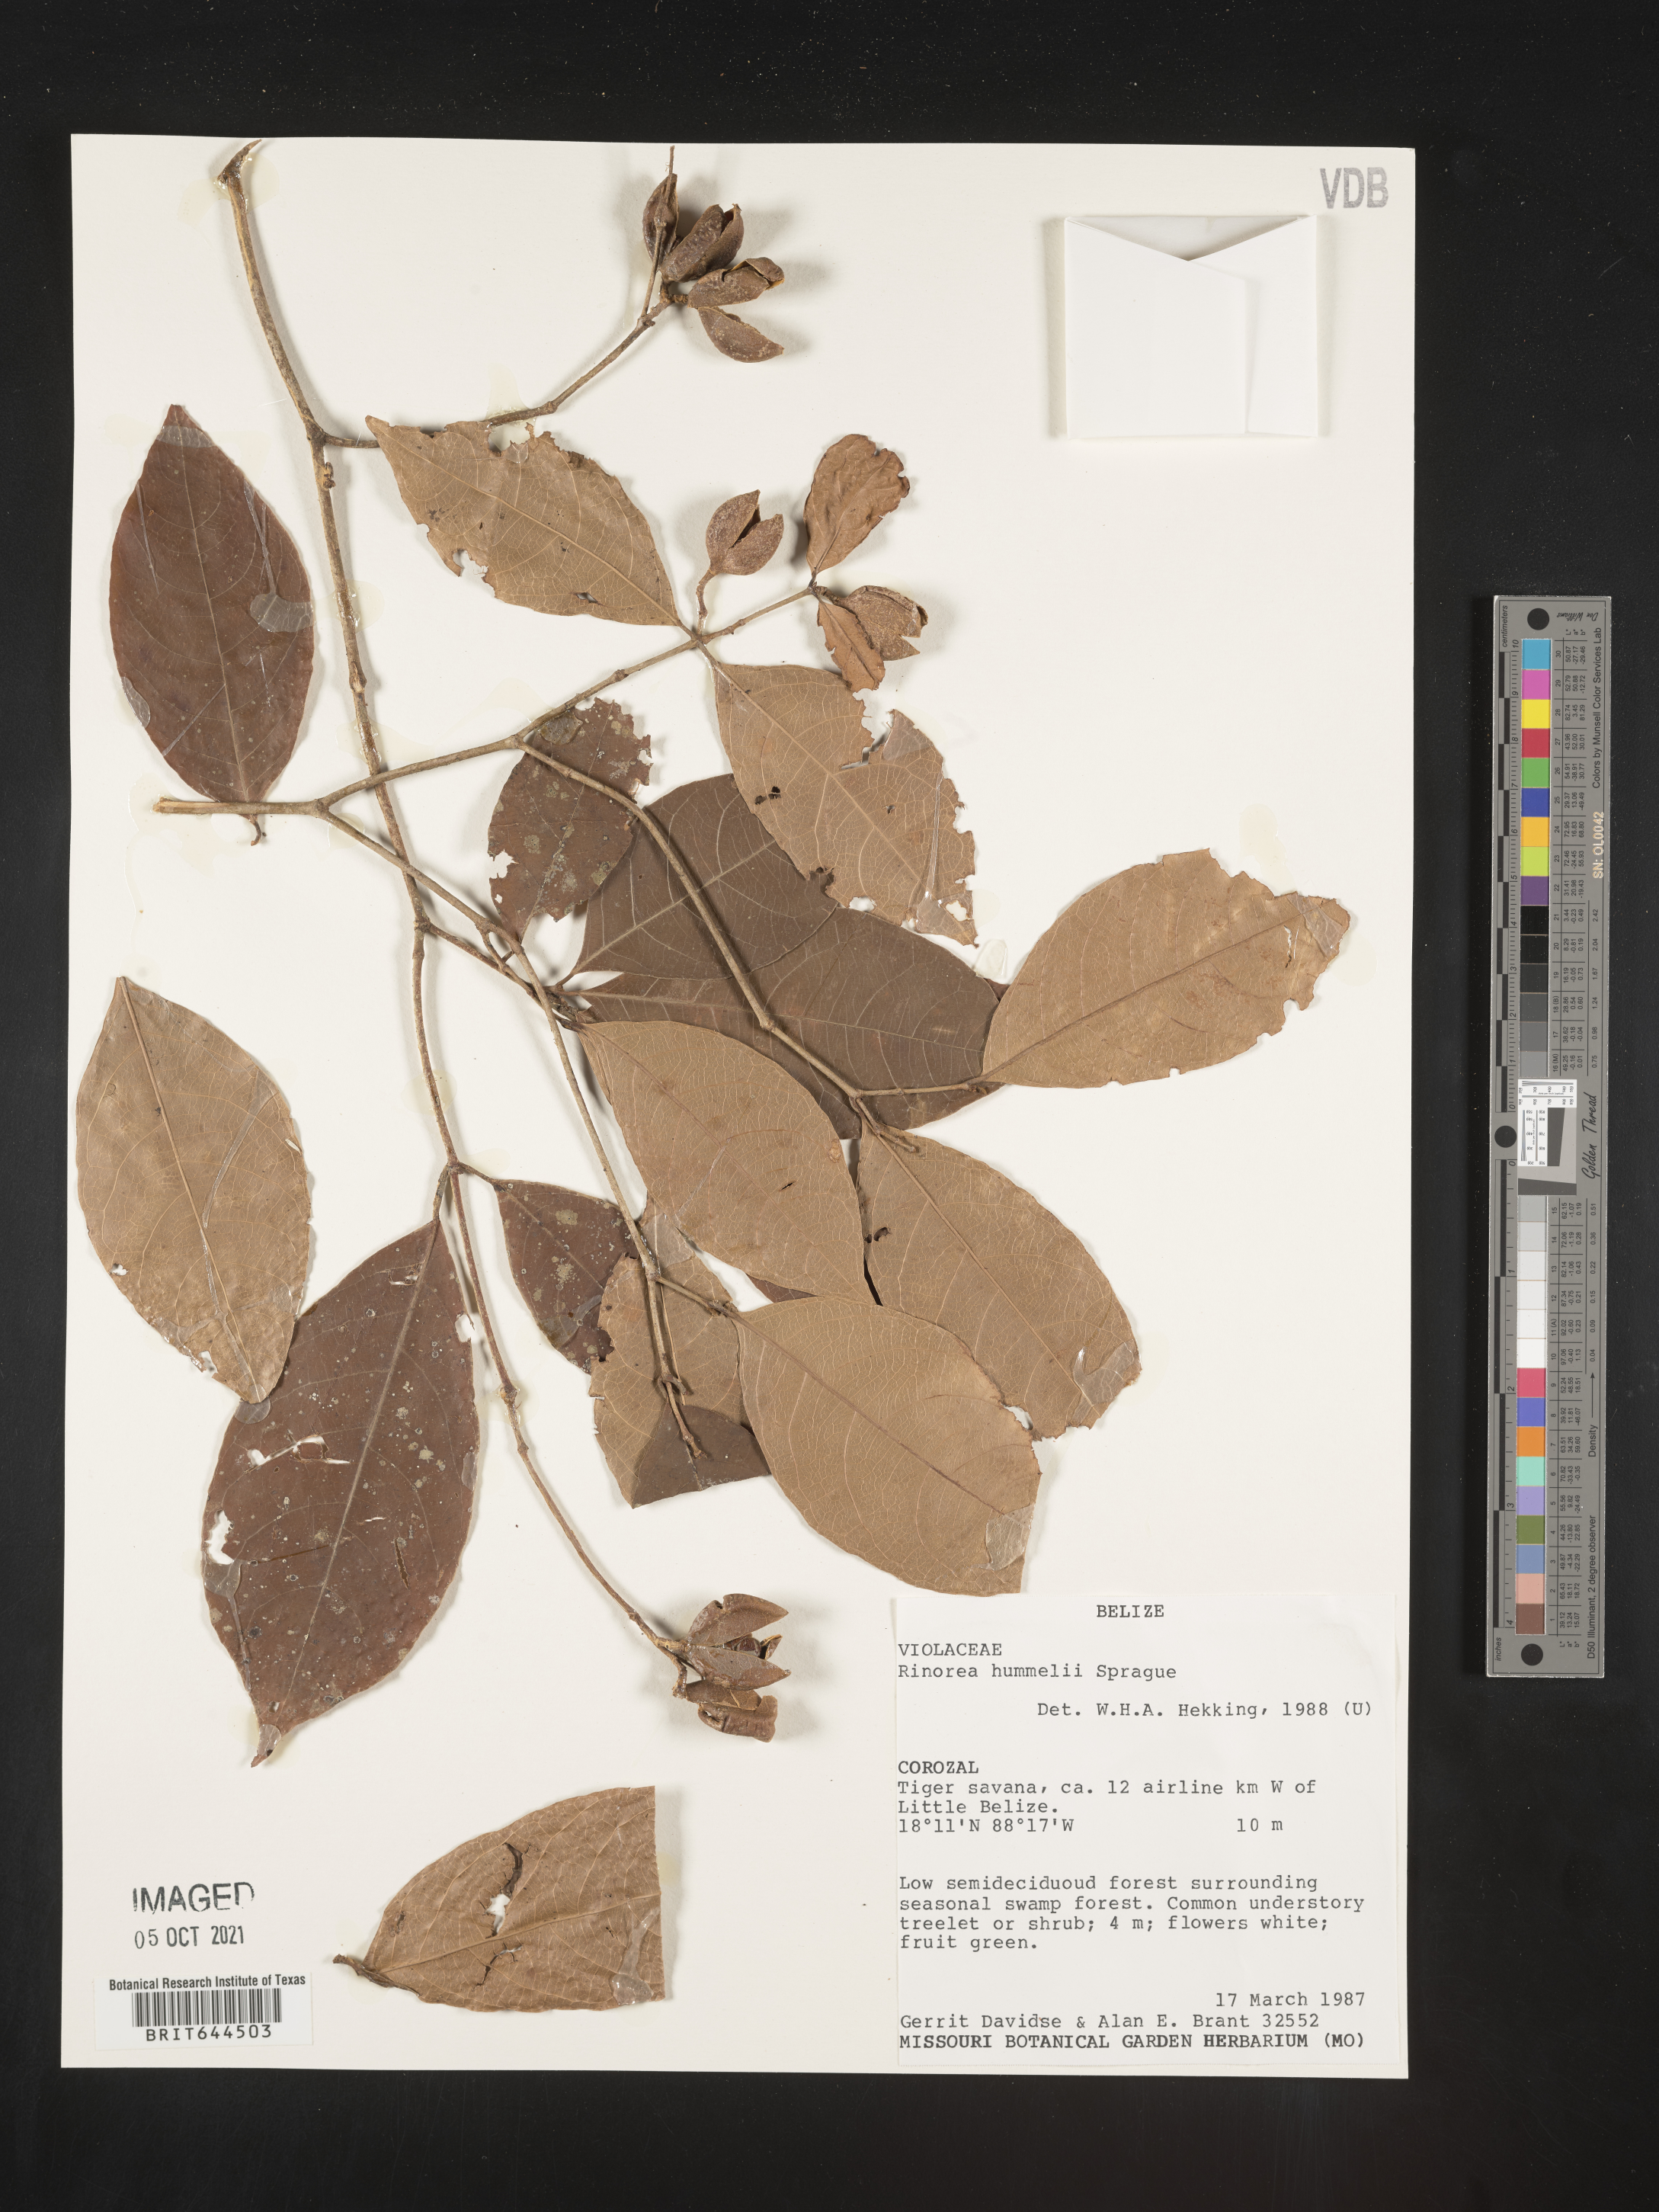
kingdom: Plantae
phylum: Tracheophyta
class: Magnoliopsida
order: Malpighiales
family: Violaceae
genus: Rinorea
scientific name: Rinorea
